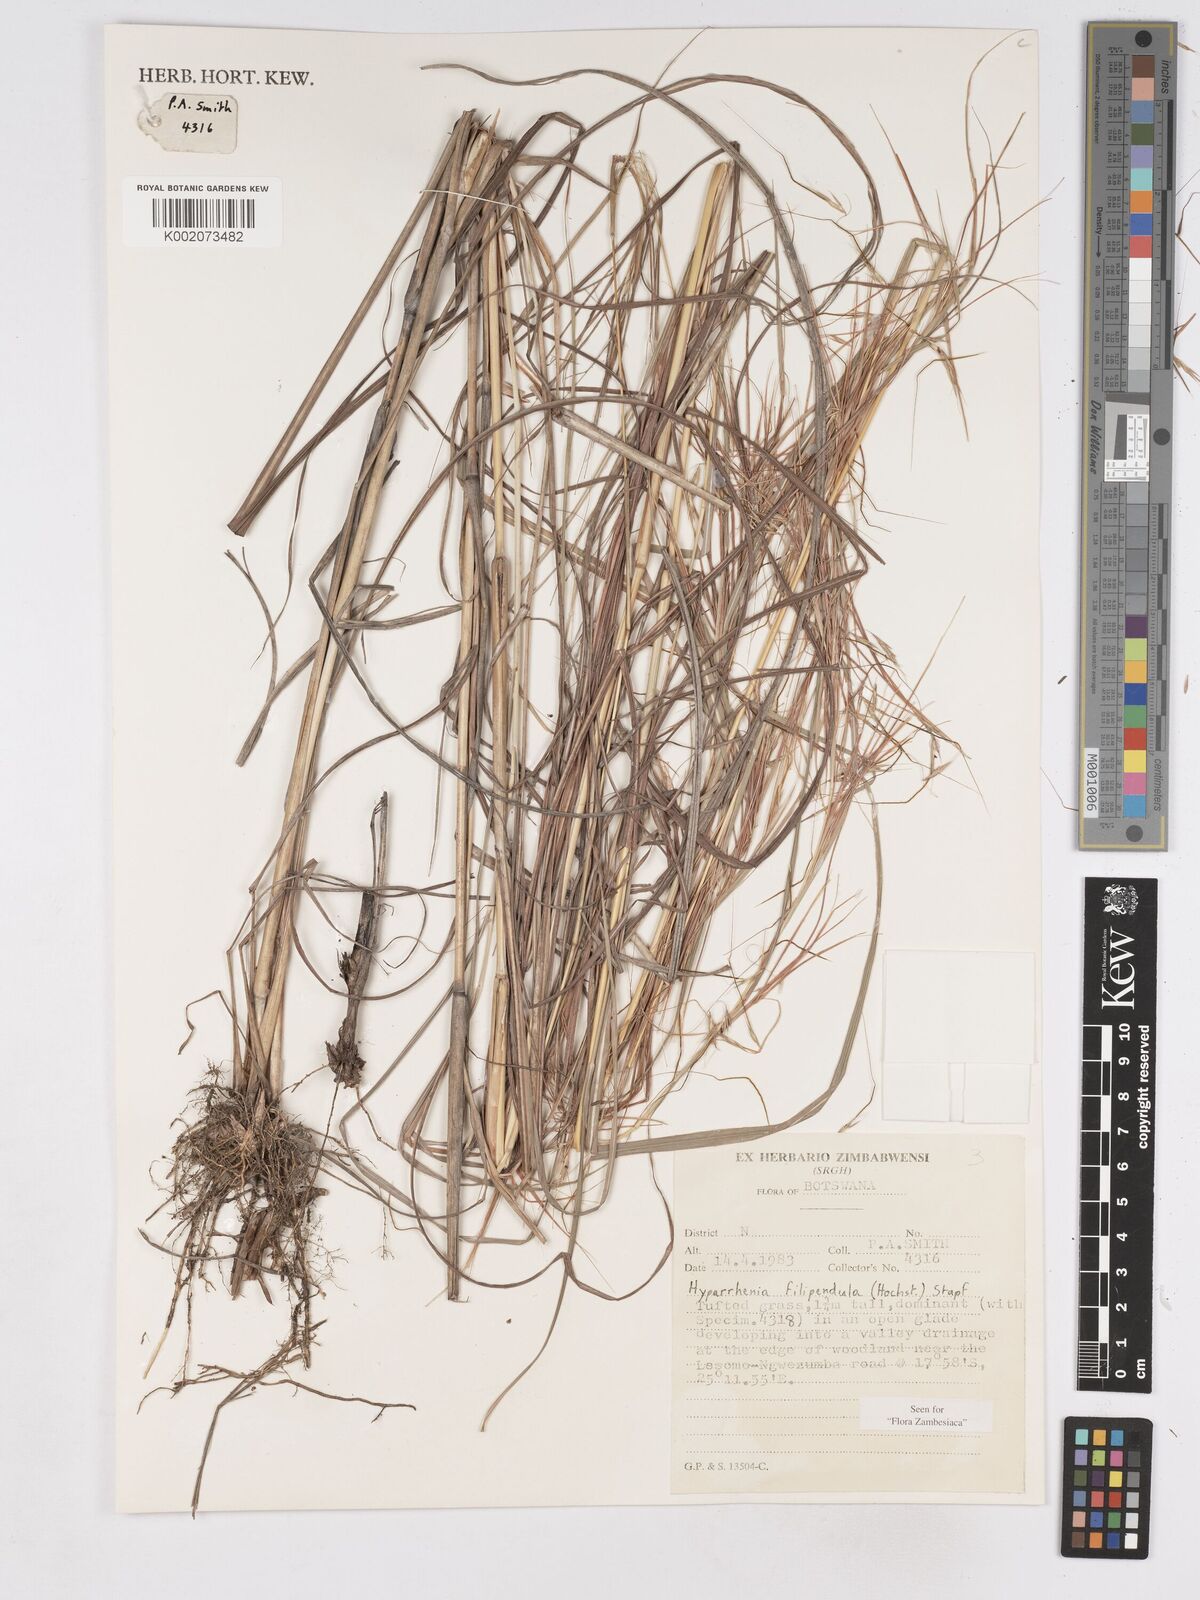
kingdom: Plantae
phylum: Tracheophyta
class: Liliopsida
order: Poales
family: Poaceae
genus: Hyparrhenia
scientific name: Hyparrhenia filipendula
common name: Tambookie grass
